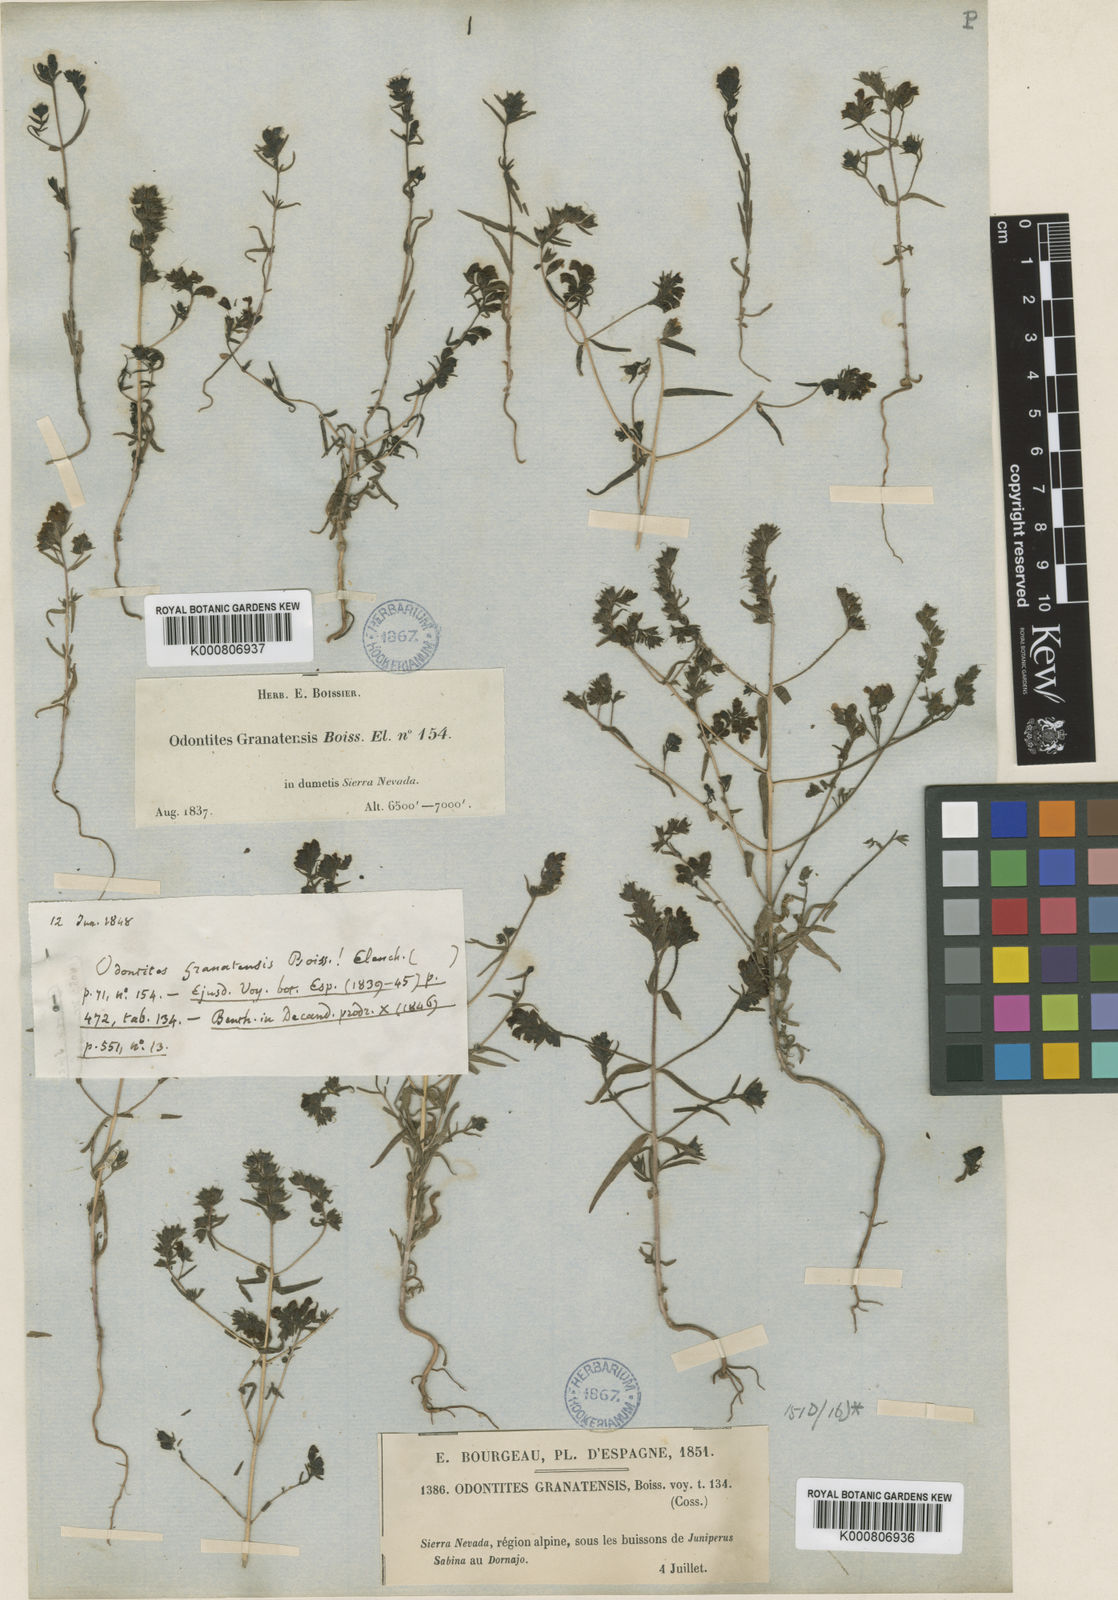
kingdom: Plantae
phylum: Tracheophyta
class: Magnoliopsida
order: Lamiales
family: Orobanchaceae
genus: Odontites
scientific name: Odontites viscosus
